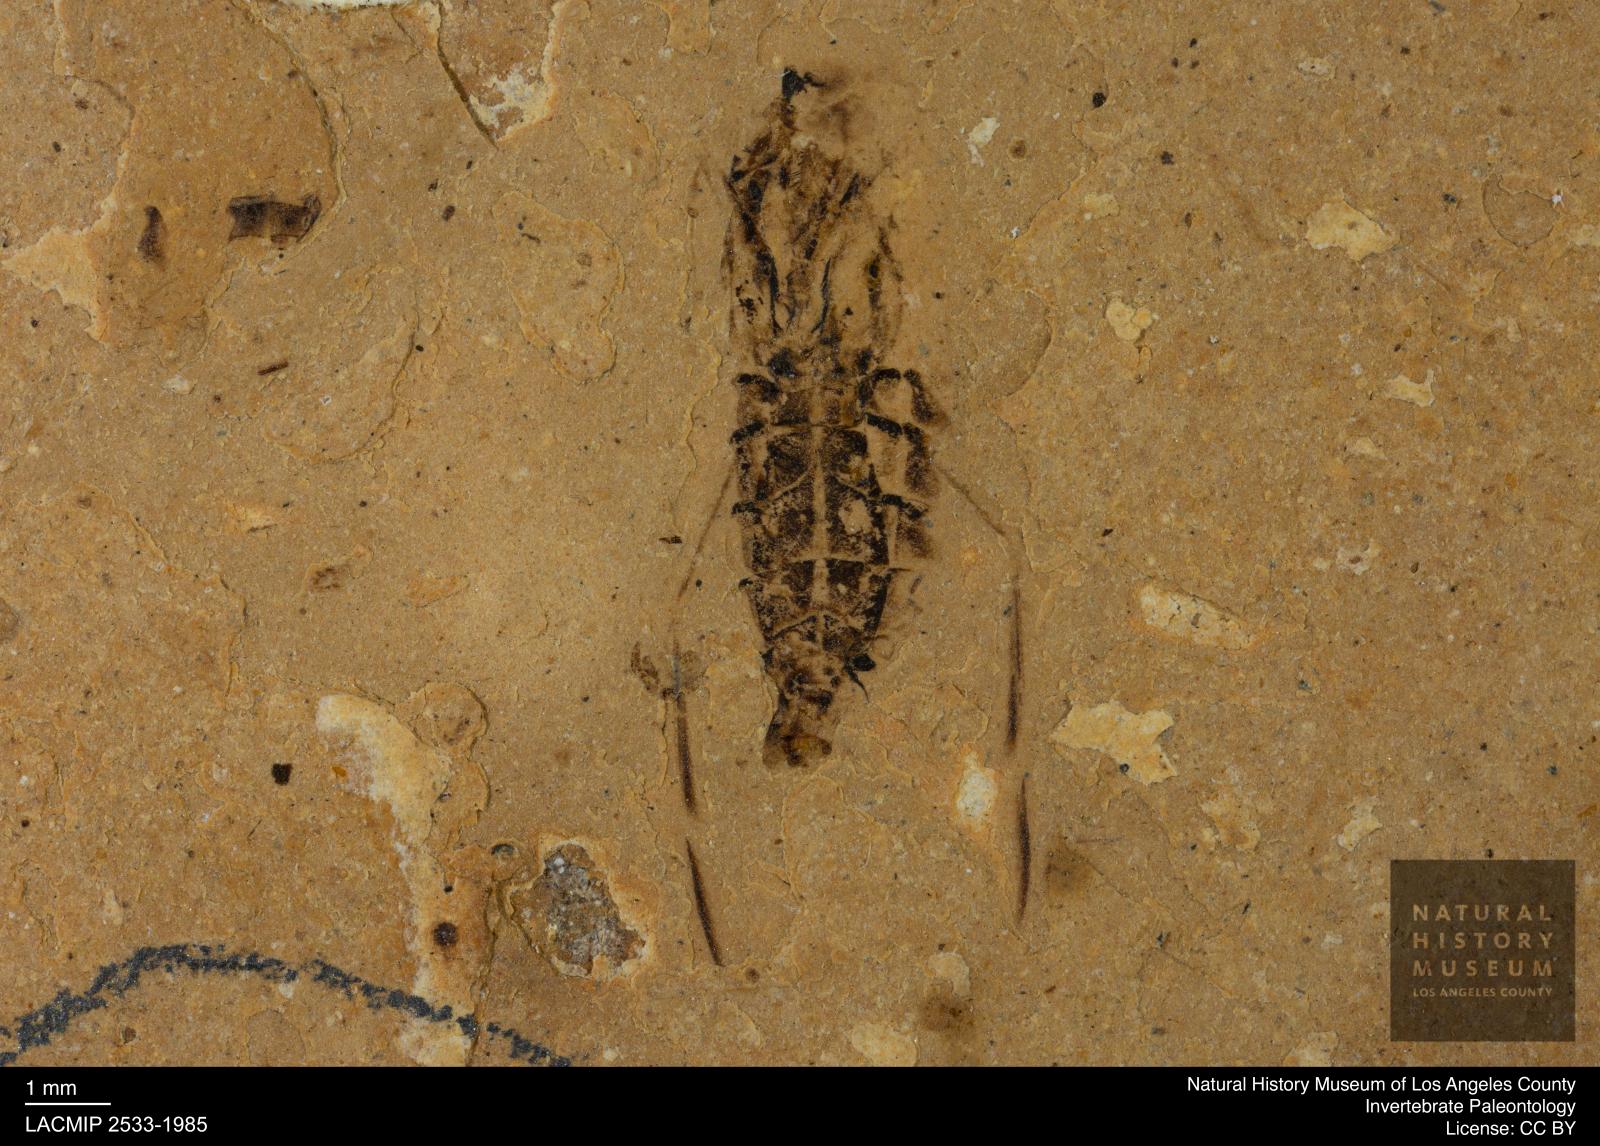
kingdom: Animalia
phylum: Arthropoda
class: Insecta
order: Hemiptera
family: Notonectidae
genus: Anisops
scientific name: Anisops Notonecta deichmuelleri
